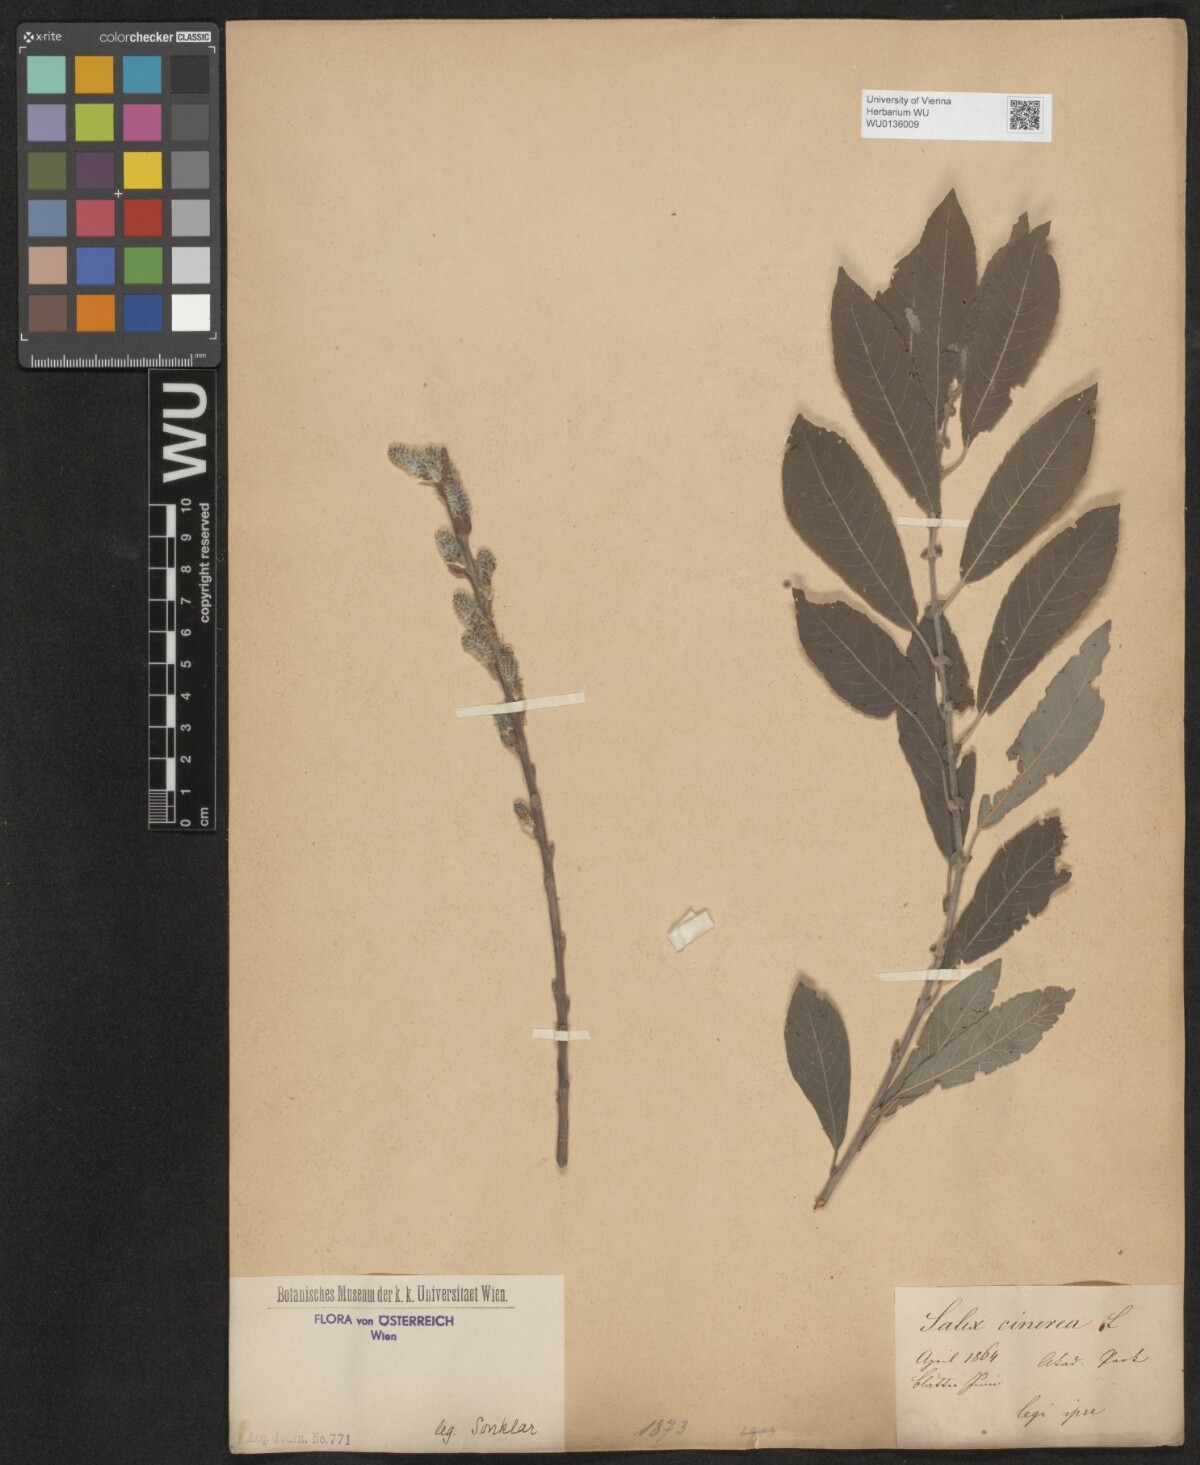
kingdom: Plantae
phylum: Tracheophyta
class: Magnoliopsida
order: Malpighiales
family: Salicaceae
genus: Salix
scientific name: Salix cinerea
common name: Common sallow
